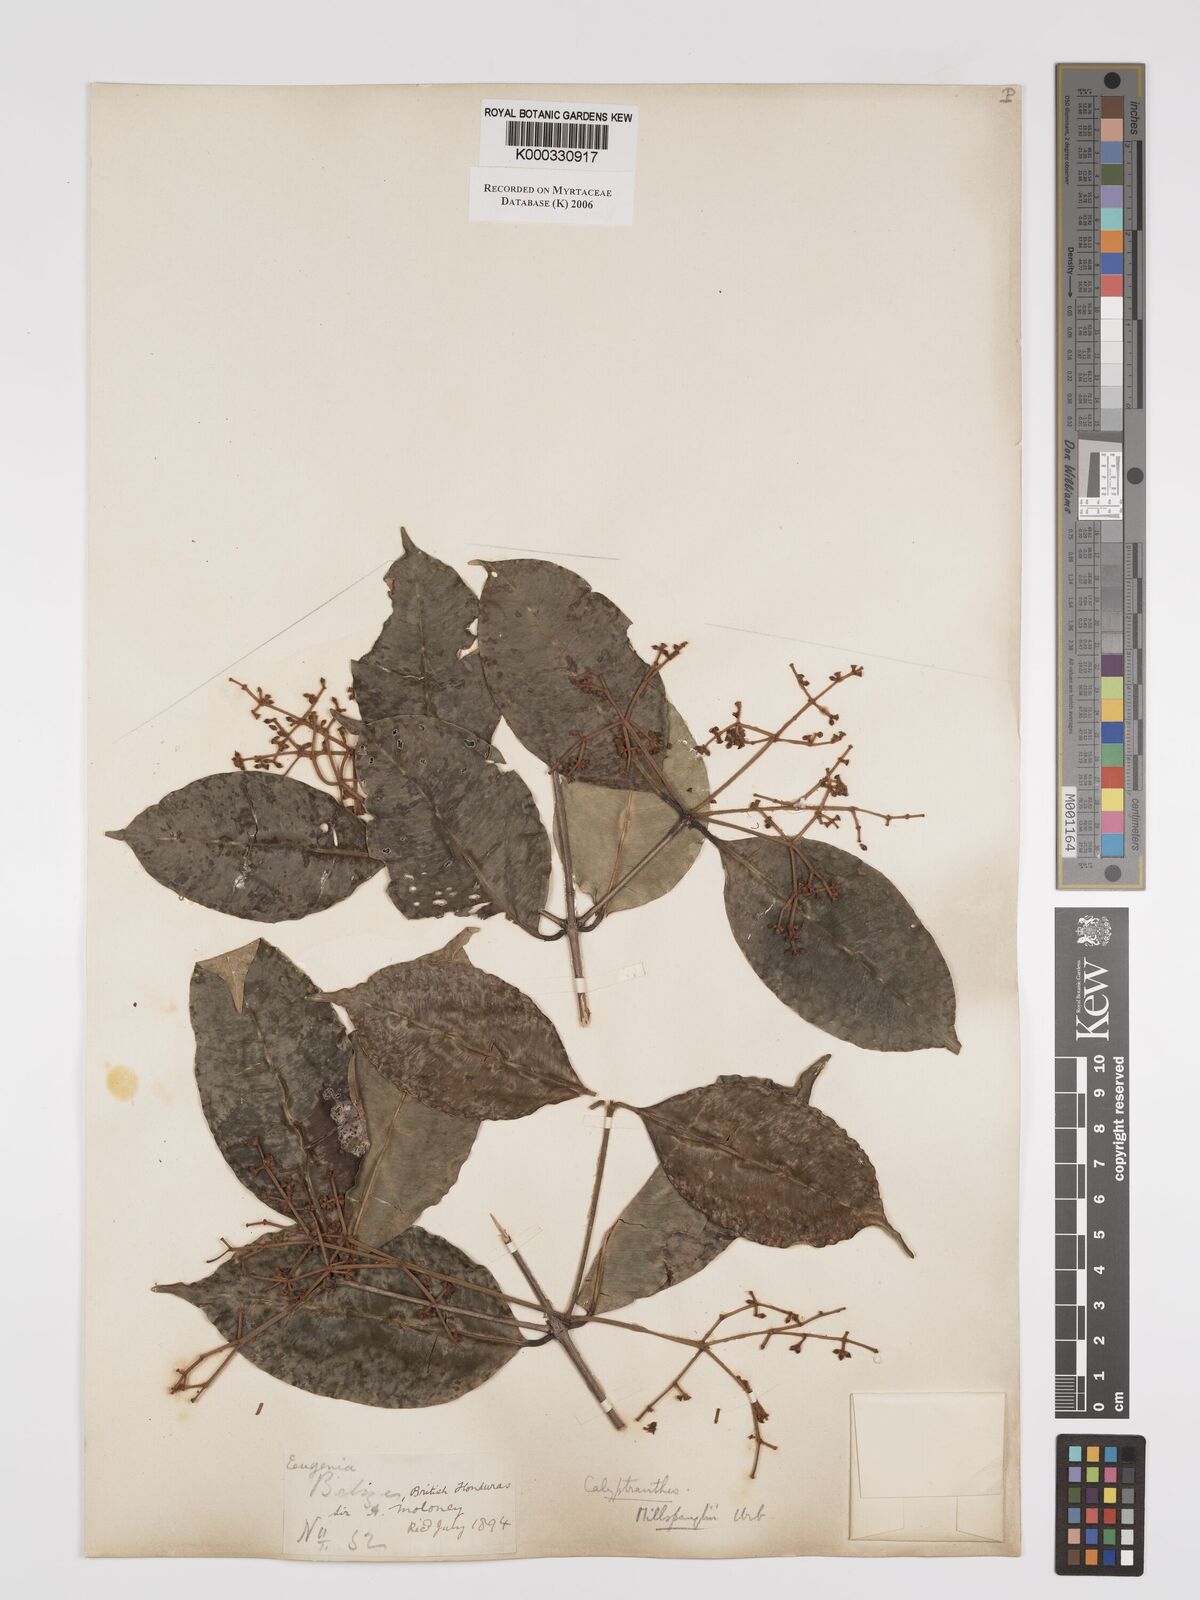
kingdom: Plantae
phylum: Tracheophyta
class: Magnoliopsida
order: Myrtales
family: Myrtaceae
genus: Myrcia
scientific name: Myrcia millspaughii
